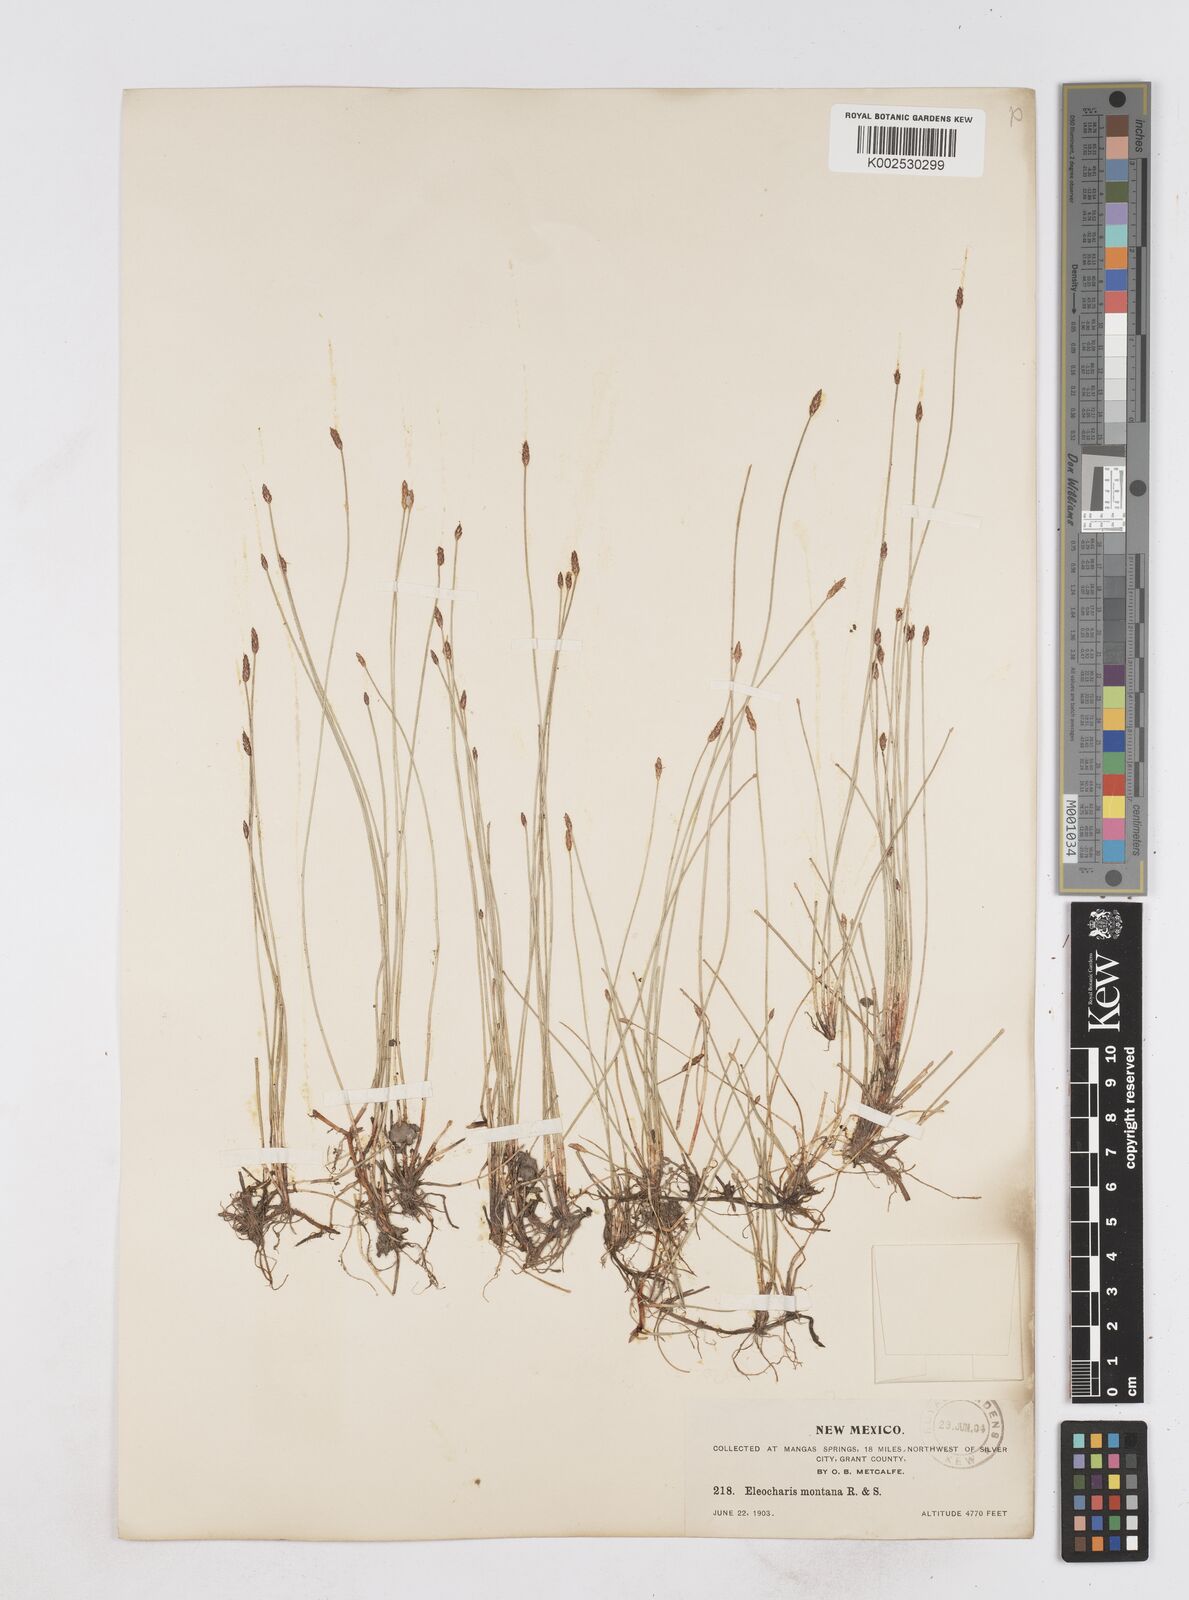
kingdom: Plantae
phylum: Tracheophyta
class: Liliopsida
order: Poales
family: Cyperaceae
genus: Eleocharis
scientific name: Eleocharis montana
